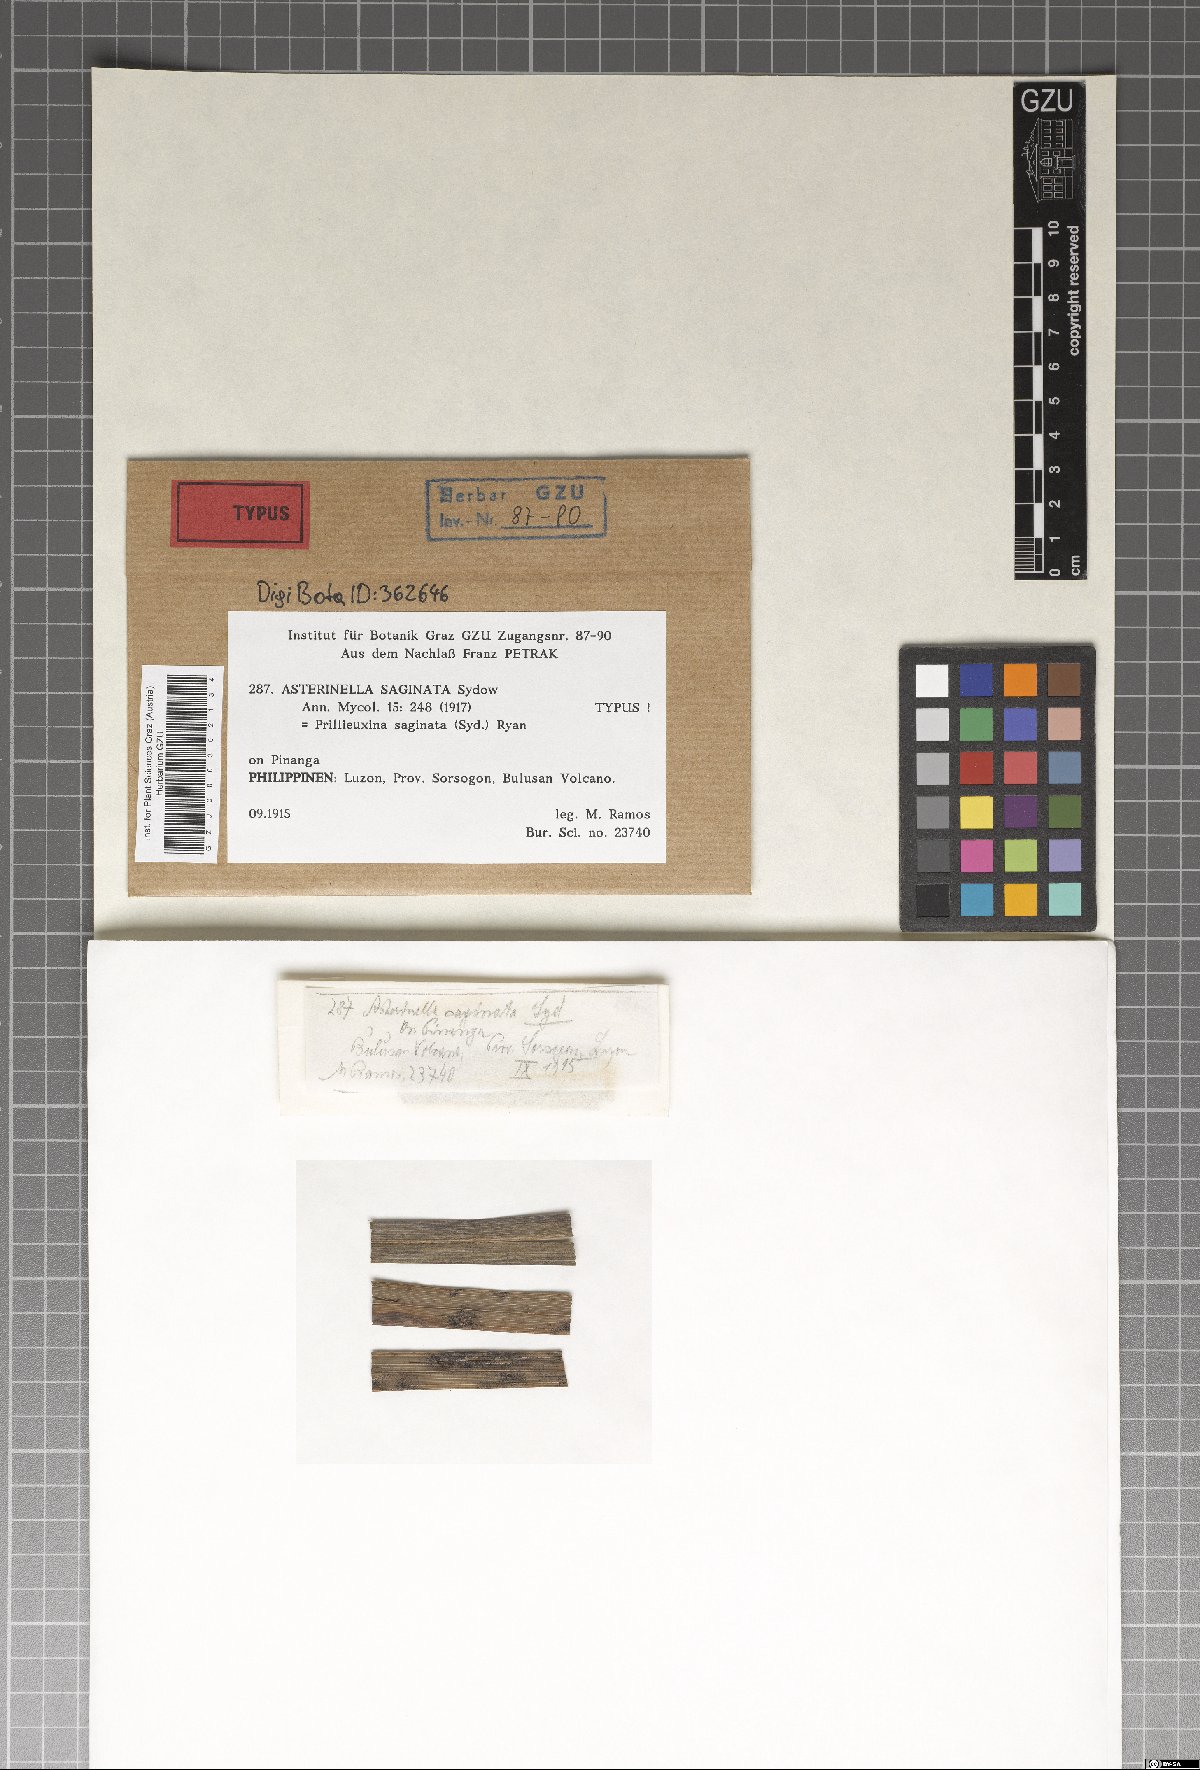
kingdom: Fungi
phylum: Ascomycota
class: Dothideomycetes
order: Asterinales
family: Asterinaceae
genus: Prillieuxina
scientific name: Prillieuxina saginata
